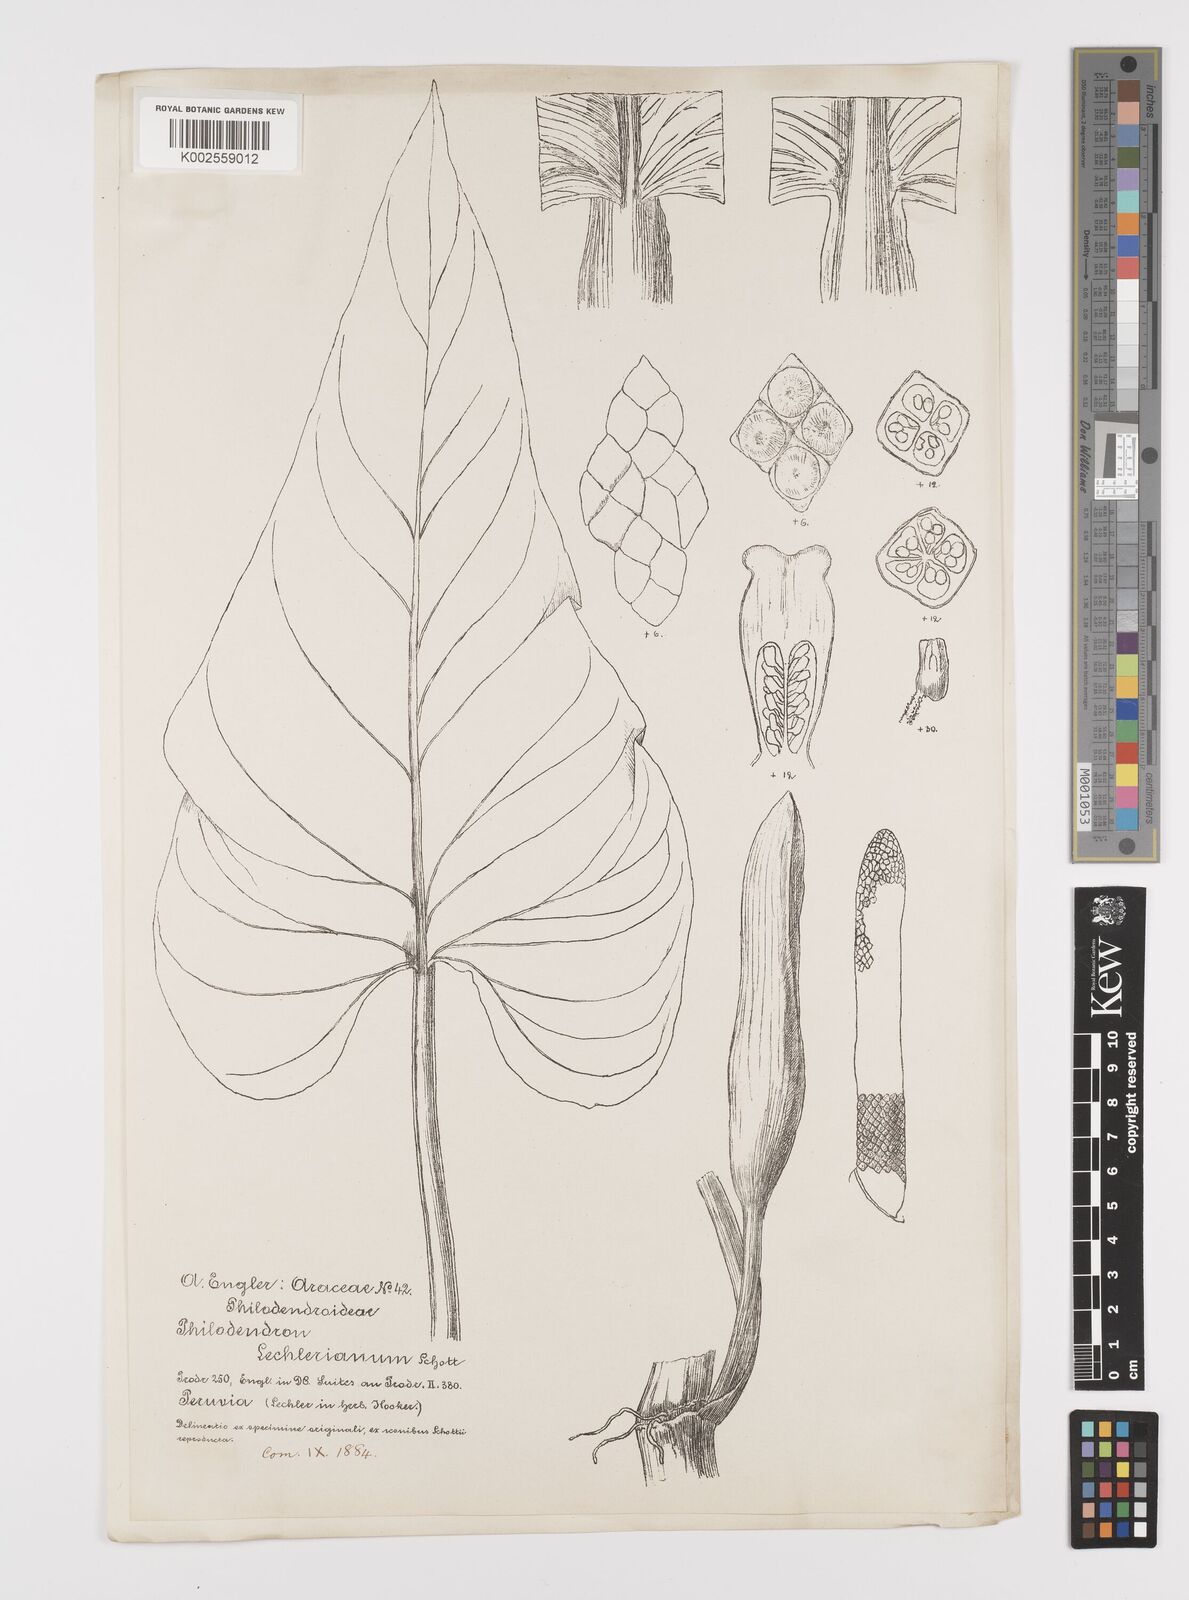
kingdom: Plantae
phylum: Tracheophyta
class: Liliopsida
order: Alismatales
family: Araceae
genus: Philodendron
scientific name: Philodendron lechlerianum
